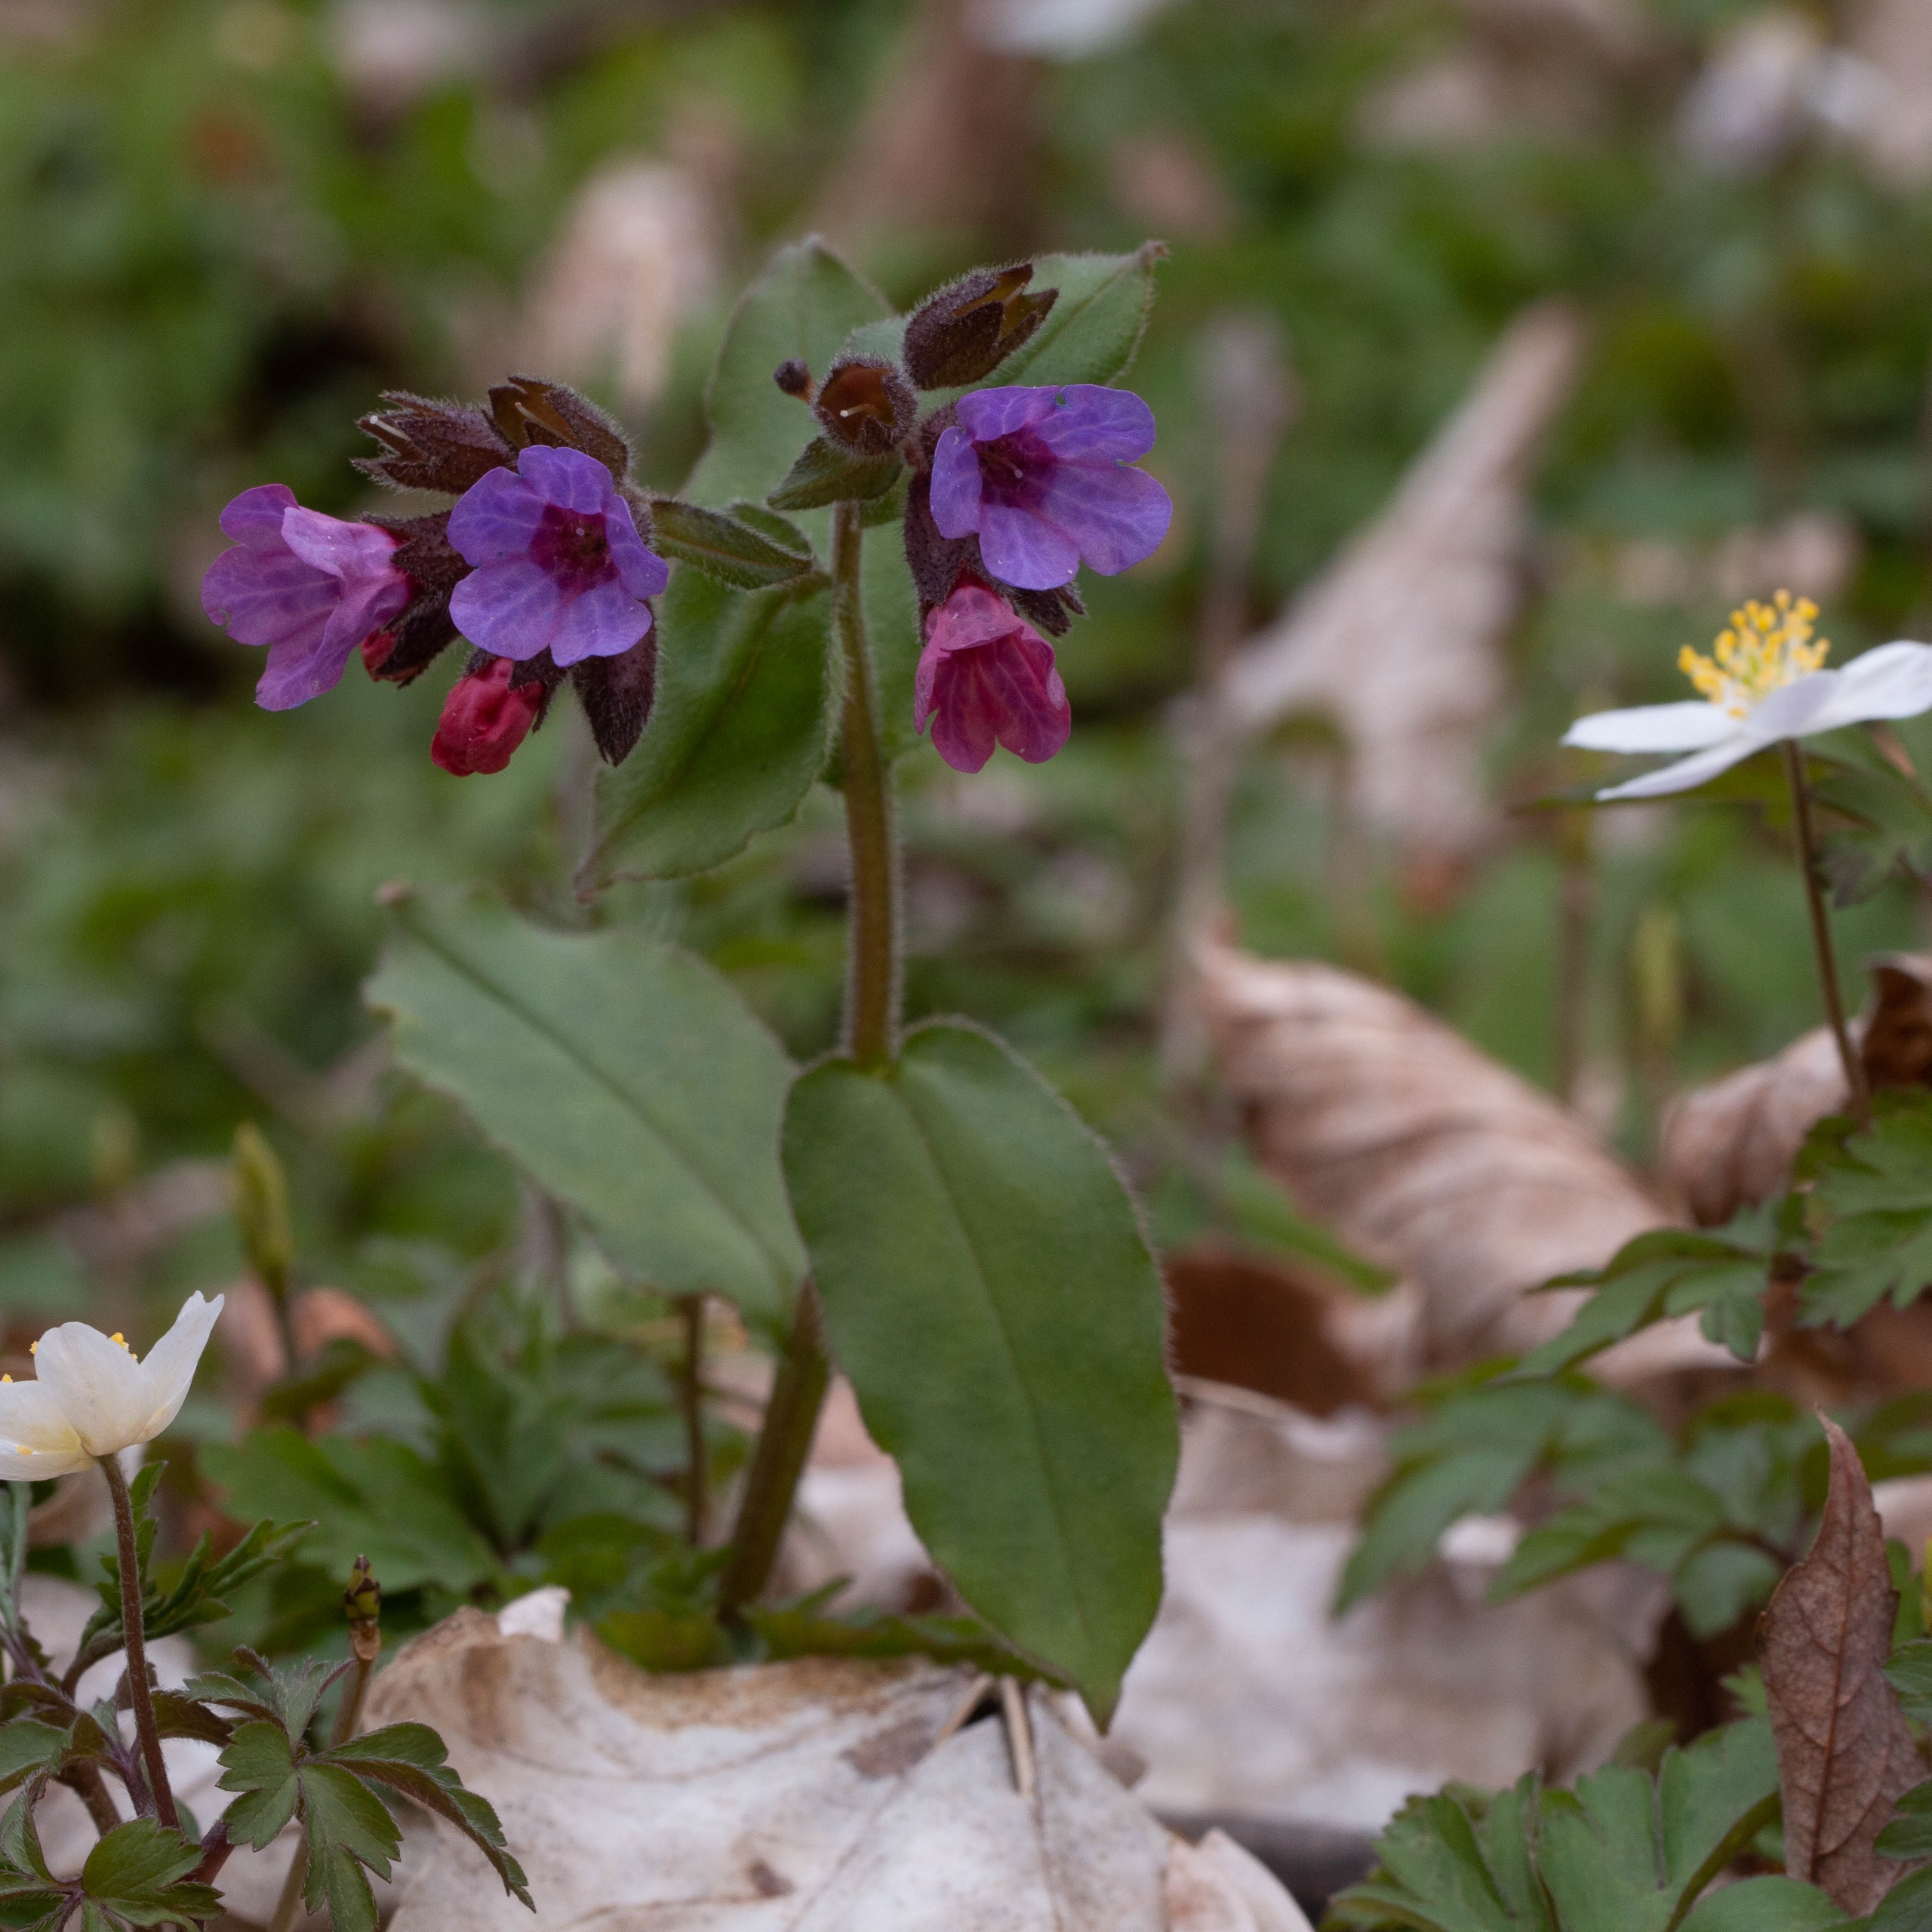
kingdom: Plantae
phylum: Tracheophyta
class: Magnoliopsida
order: Boraginales
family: Boraginaceae
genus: Pulmonaria
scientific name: Pulmonaria obscura
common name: Almindelig lungeurt
